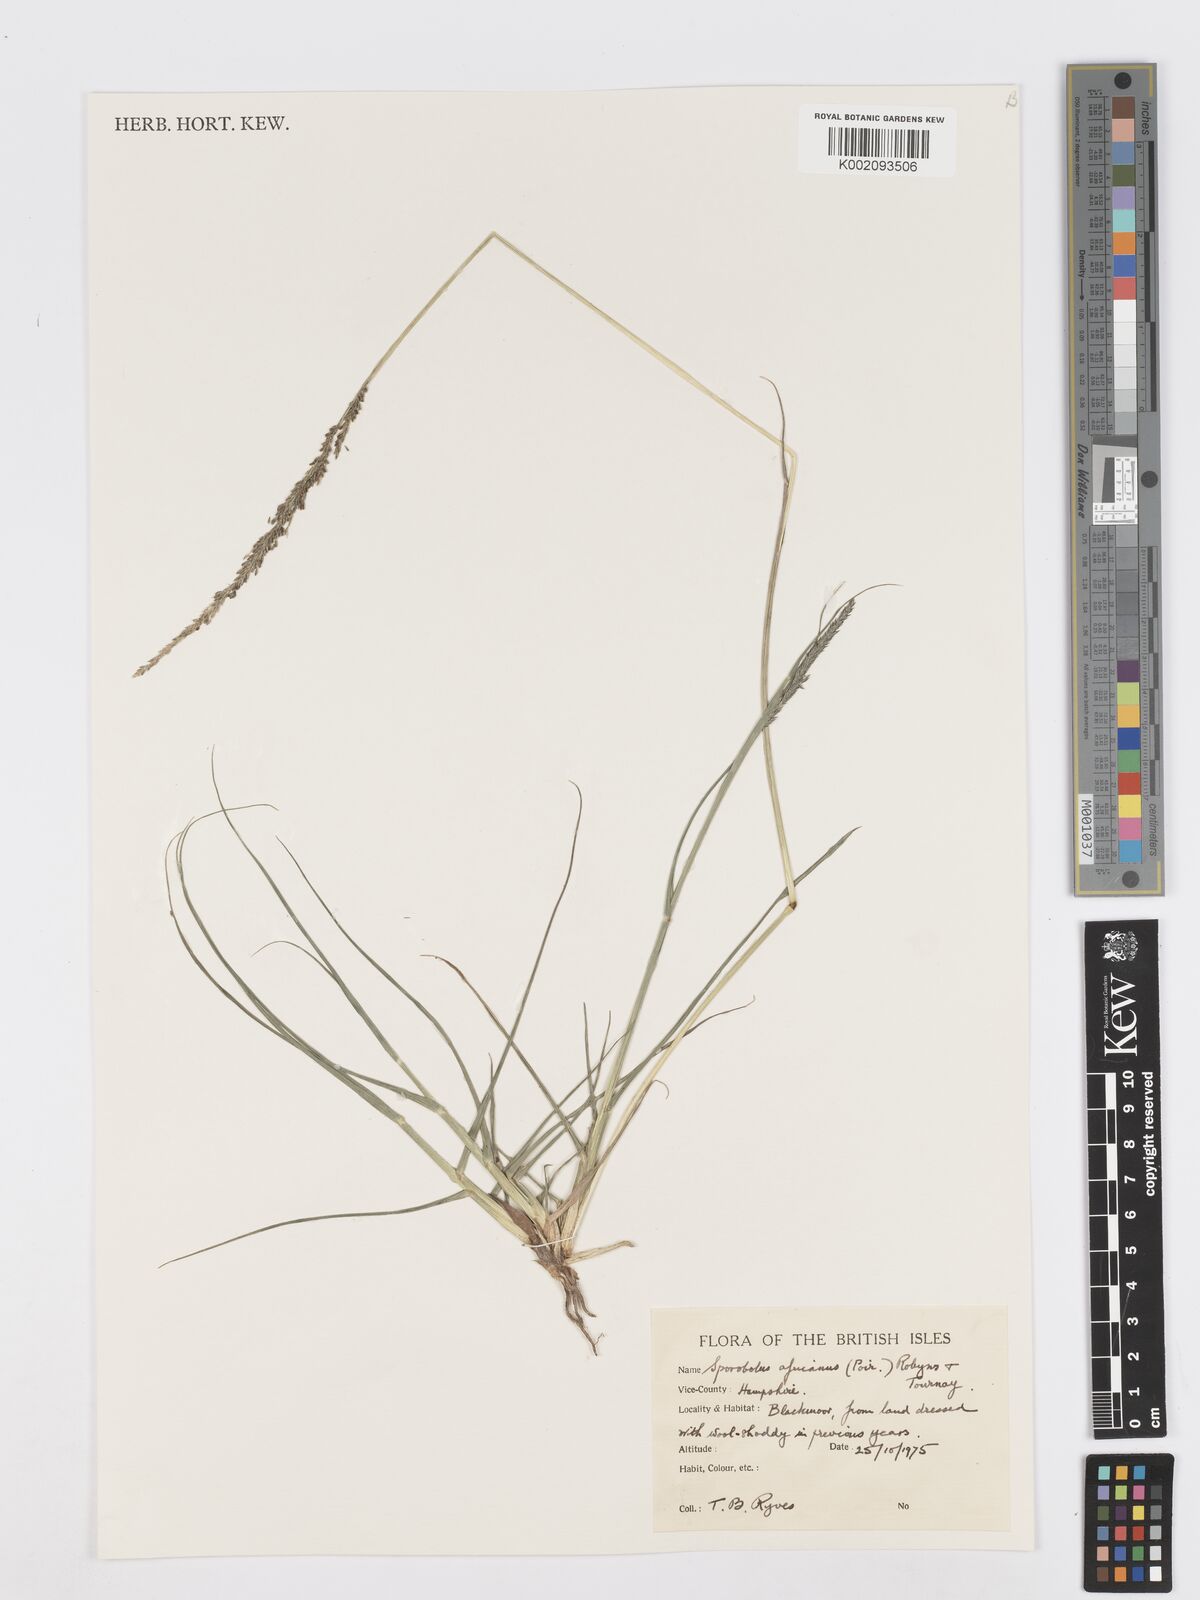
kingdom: Plantae
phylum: Tracheophyta
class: Liliopsida
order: Poales
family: Poaceae
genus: Sporobolus
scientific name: Sporobolus africanus
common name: African dropseed
